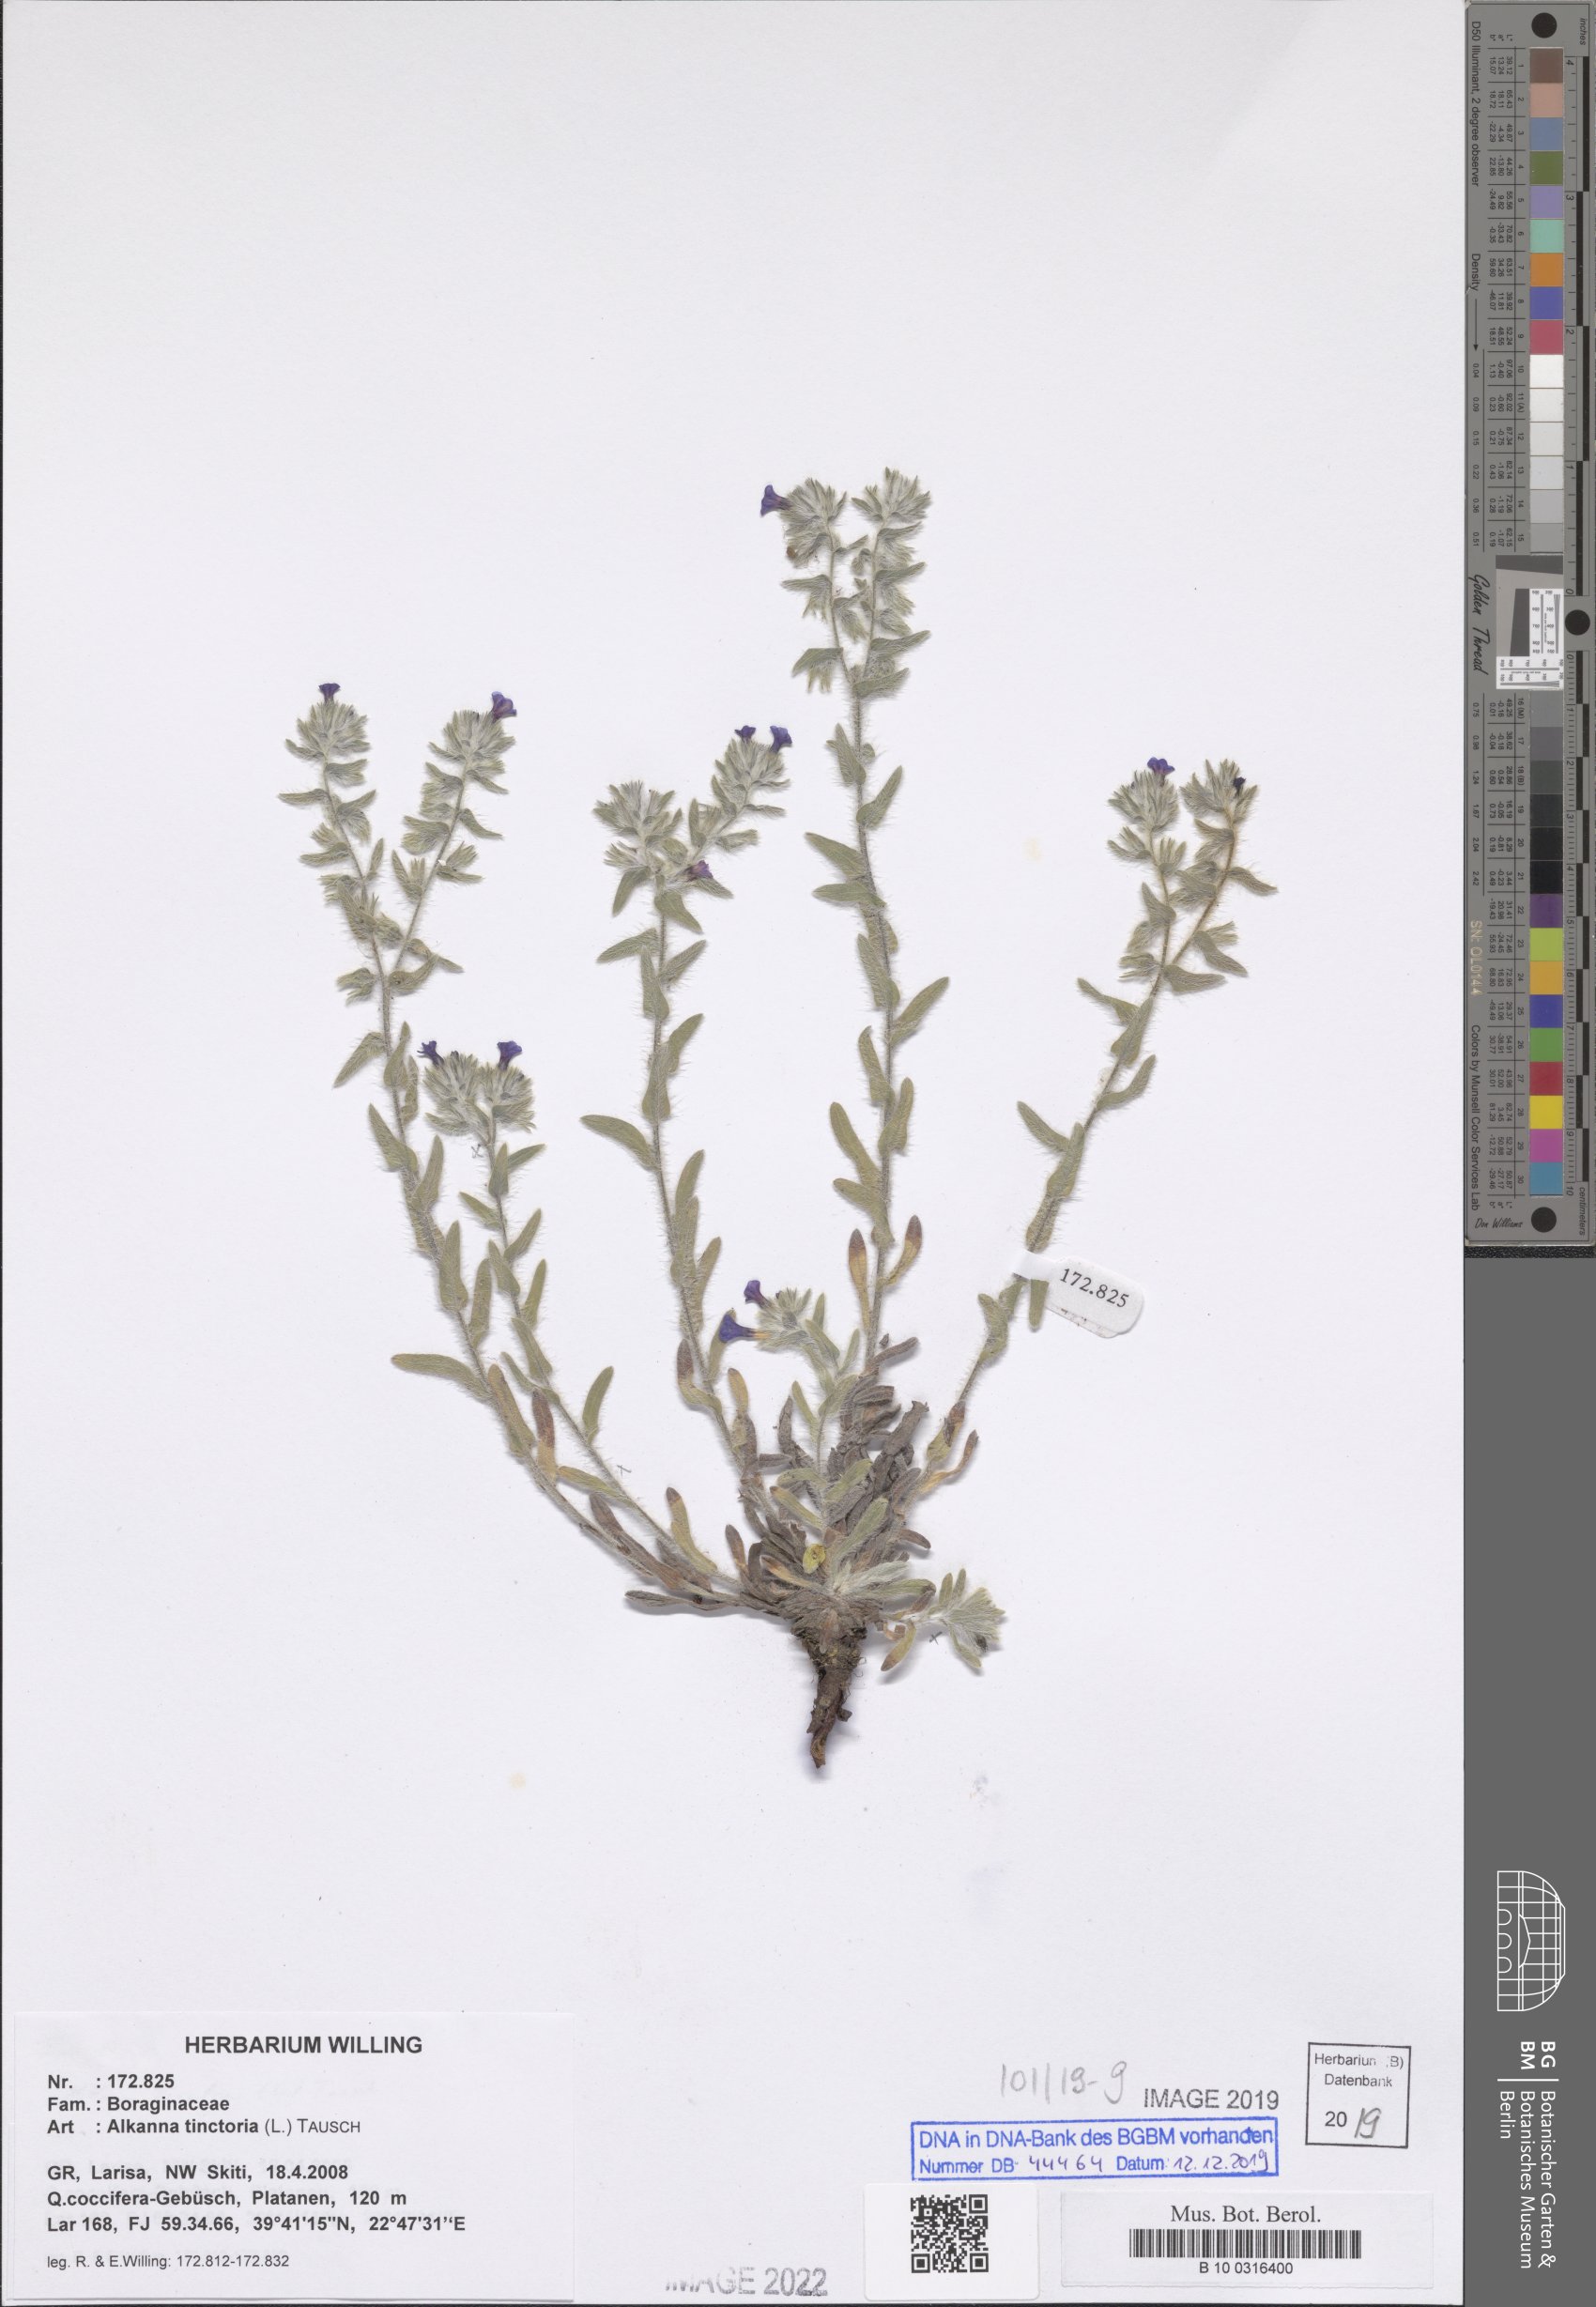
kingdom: Plantae
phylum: Tracheophyta
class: Magnoliopsida
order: Boraginales
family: Boraginaceae
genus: Alkanna
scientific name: Alkanna tinctoria
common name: Dyer's-alkanet
